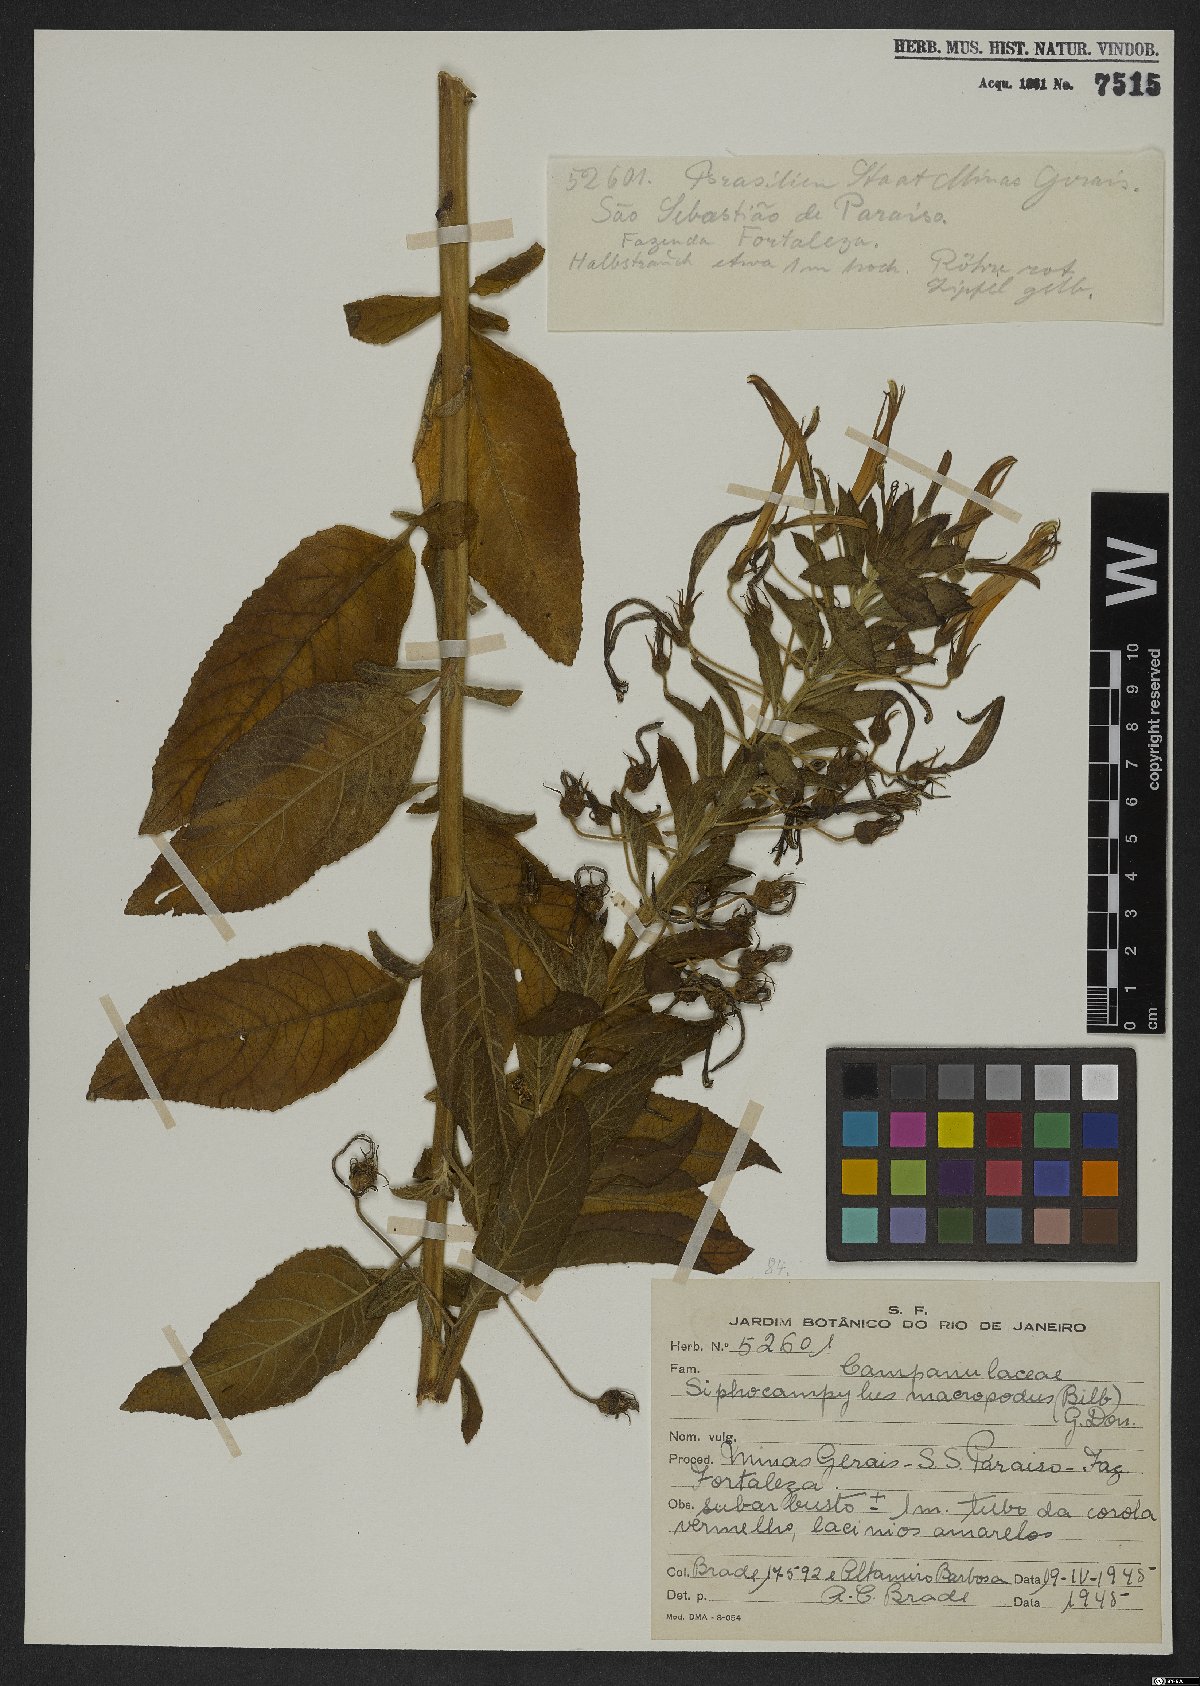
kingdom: Plantae
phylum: Tracheophyta
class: Magnoliopsida
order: Asterales
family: Campanulaceae
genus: Siphocampylus
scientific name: Siphocampylus macropodus
